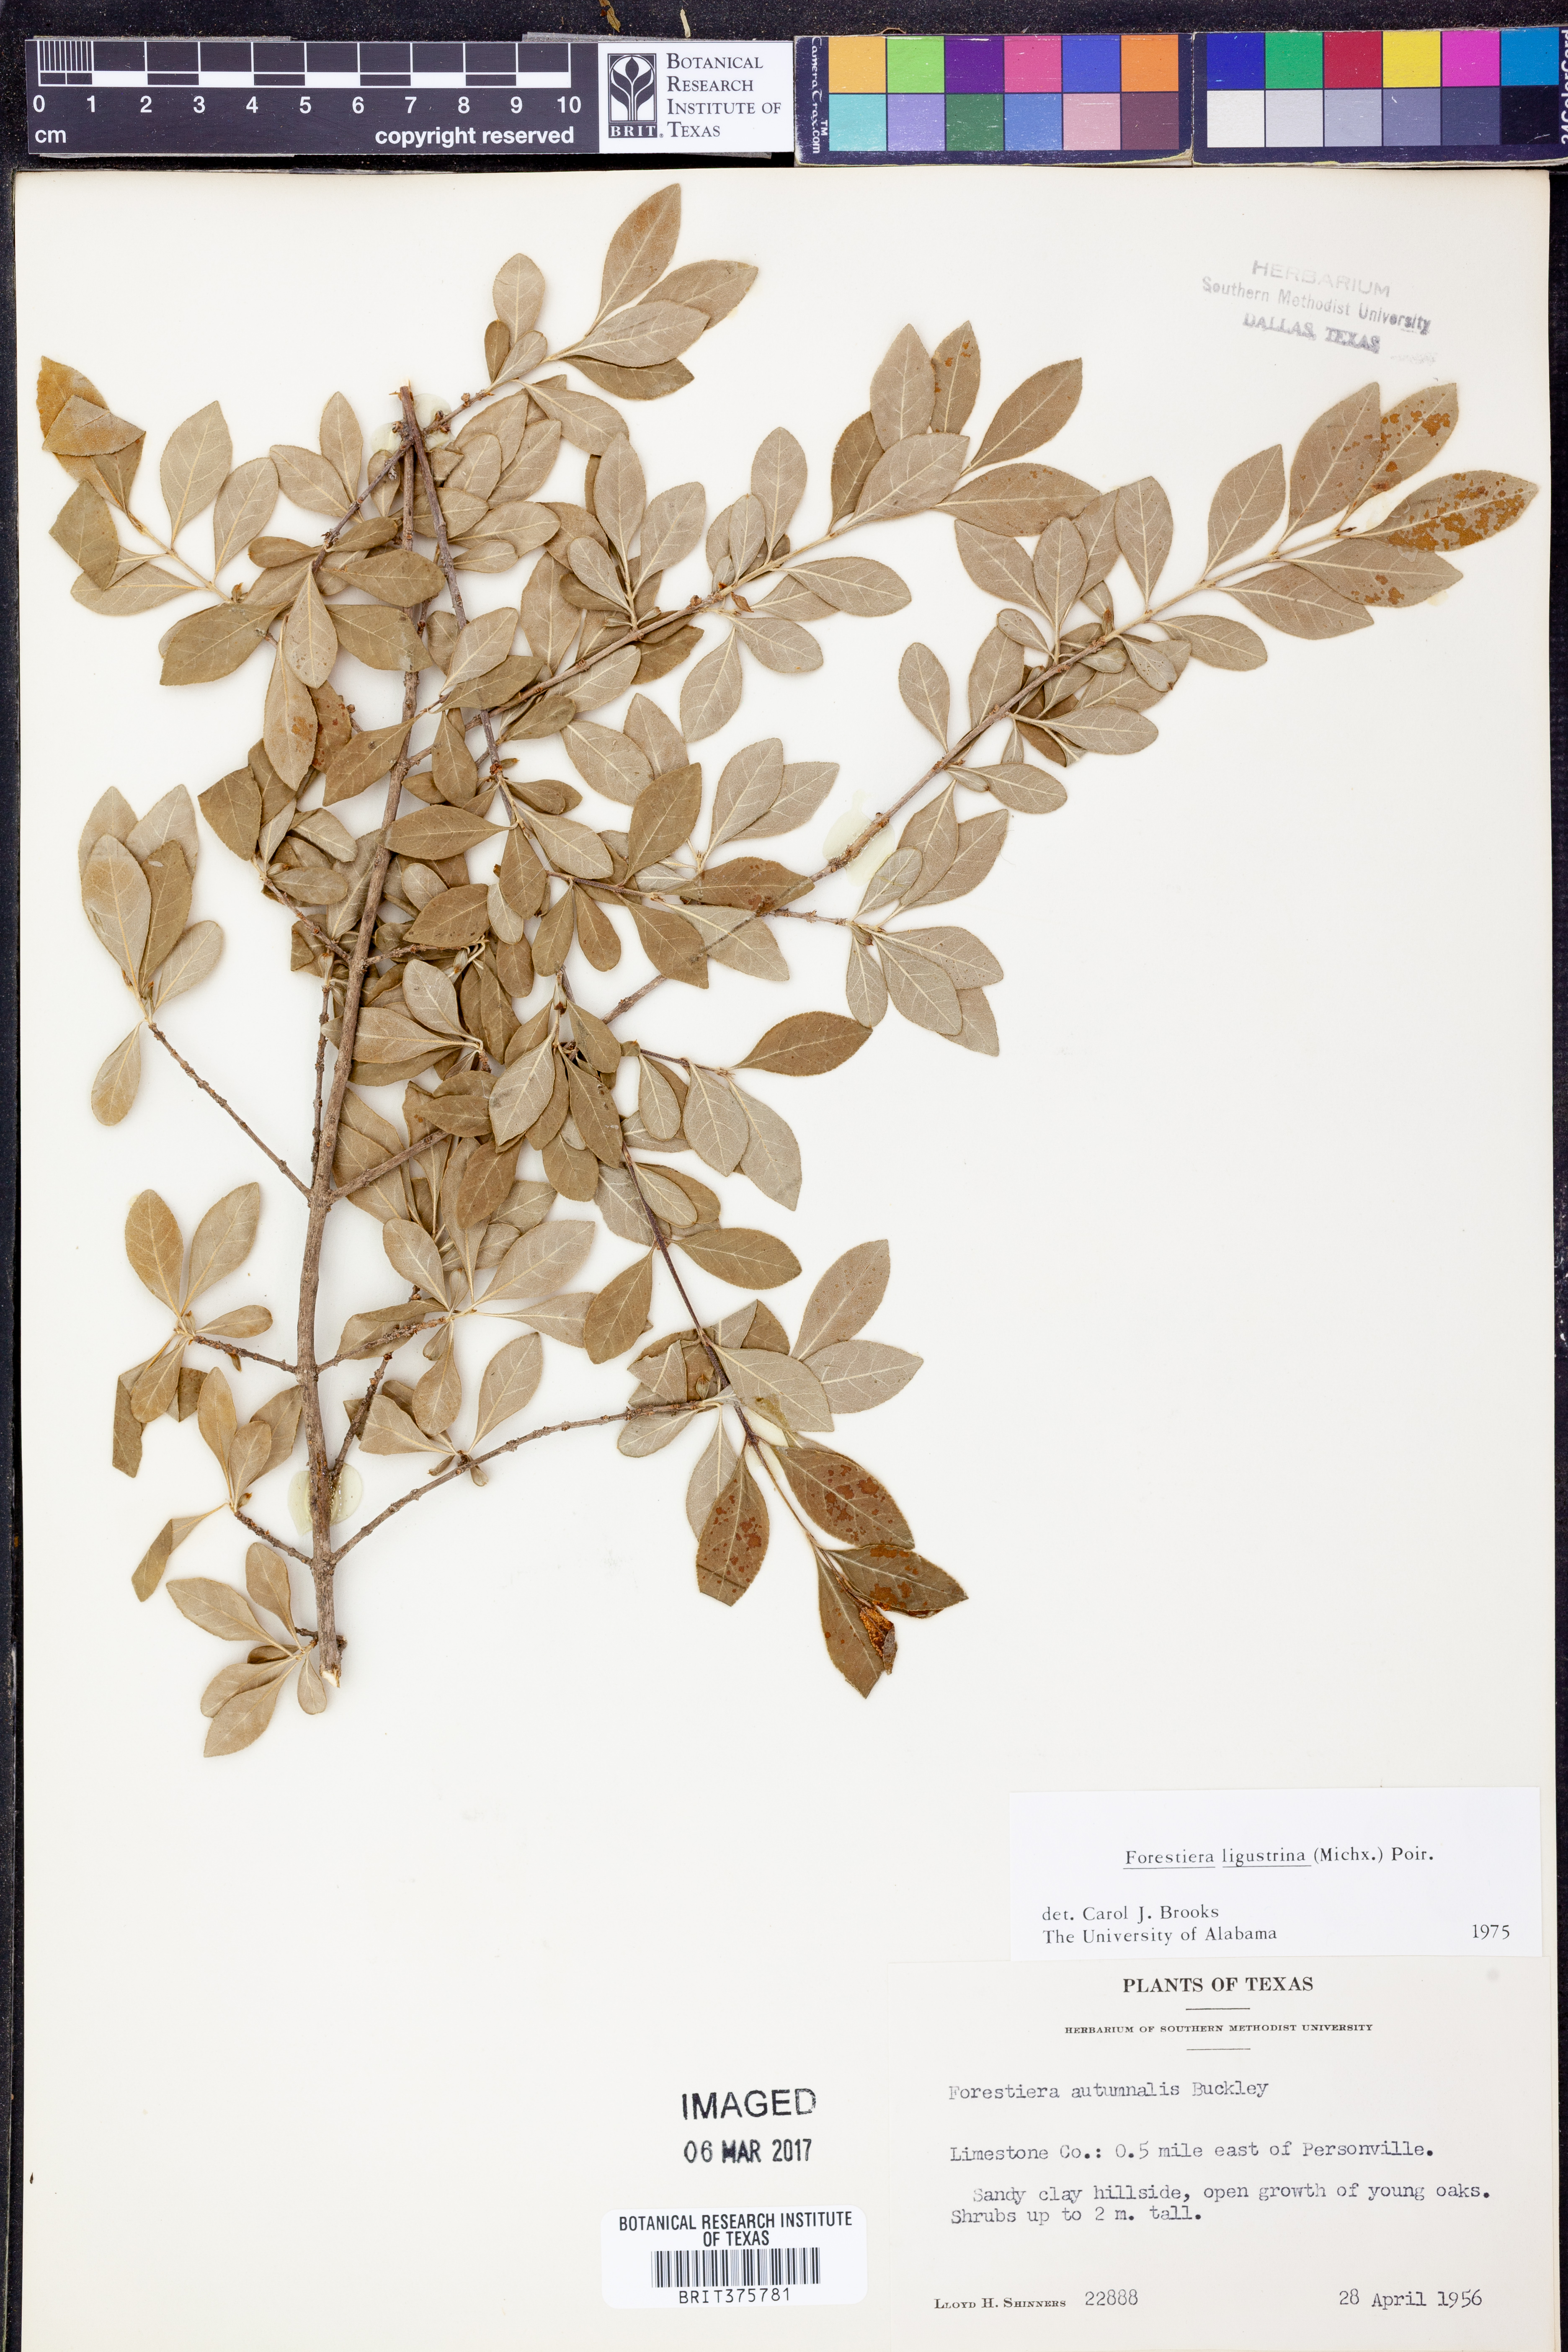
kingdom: Plantae
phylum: Tracheophyta
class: Magnoliopsida
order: Lamiales
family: Oleaceae
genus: Forestiera
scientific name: Forestiera ligustrina
